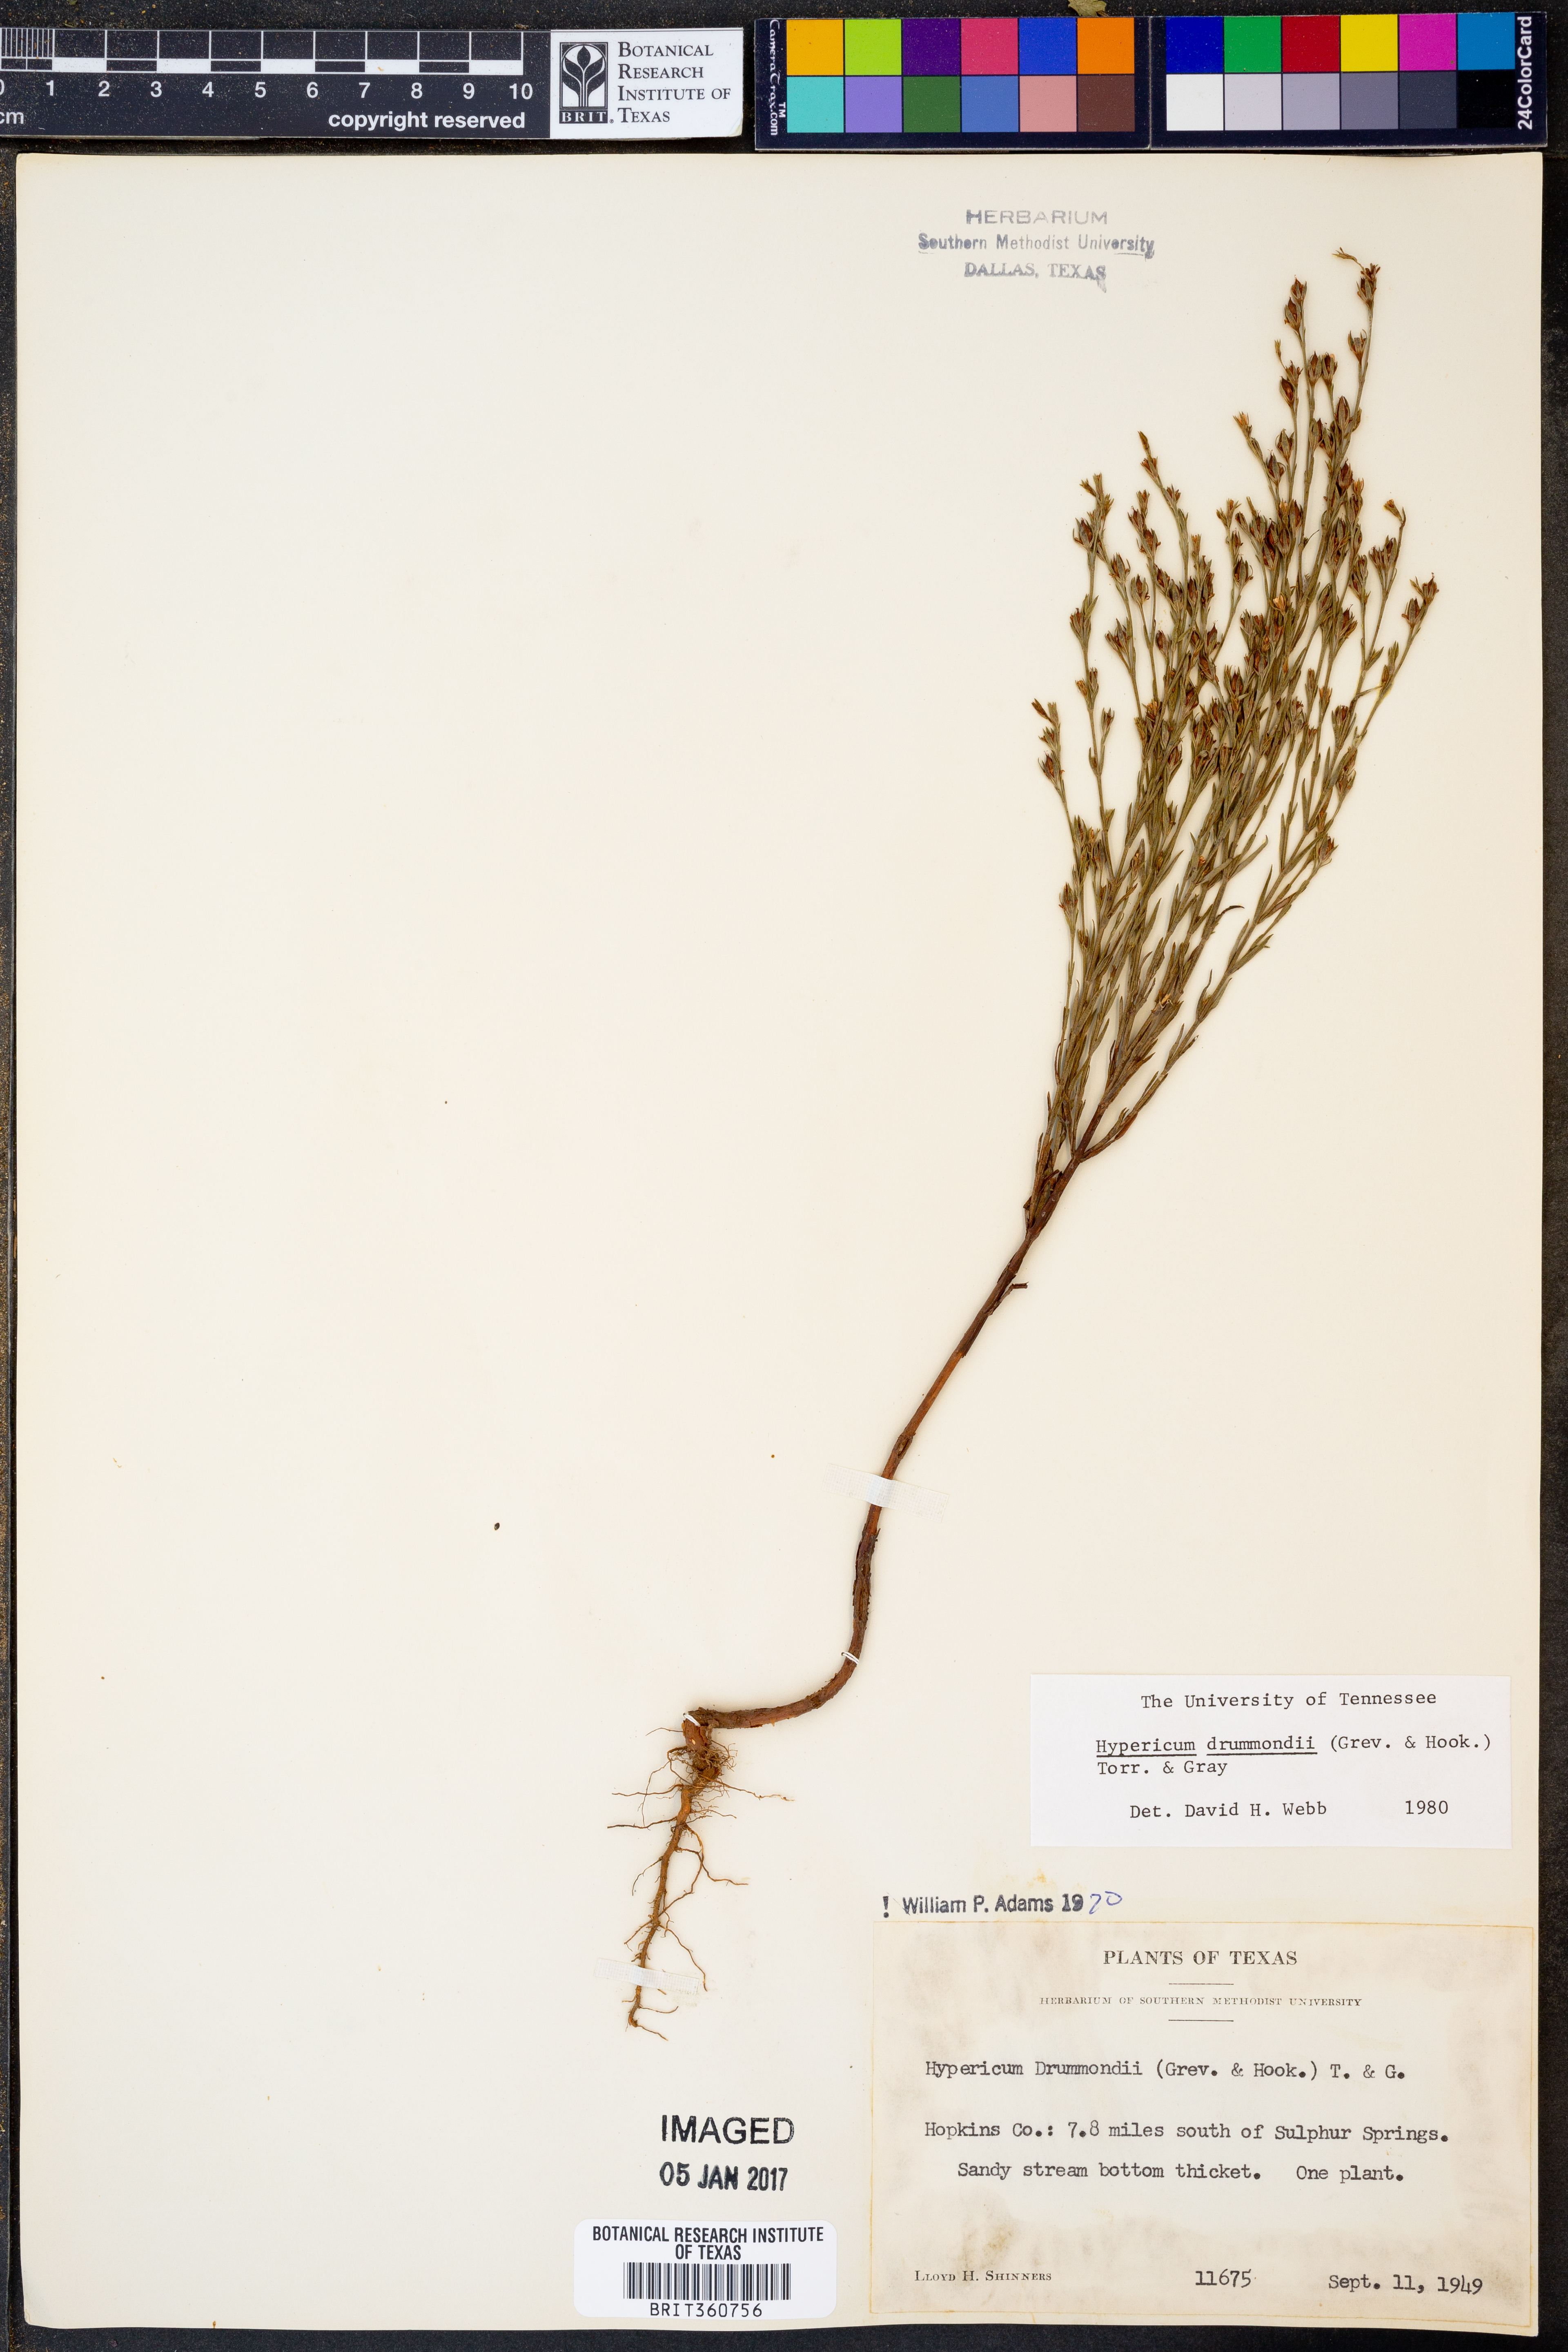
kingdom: Plantae
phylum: Tracheophyta
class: Magnoliopsida
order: Malpighiales
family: Hypericaceae
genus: Hypericum
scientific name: Hypericum drummondii
